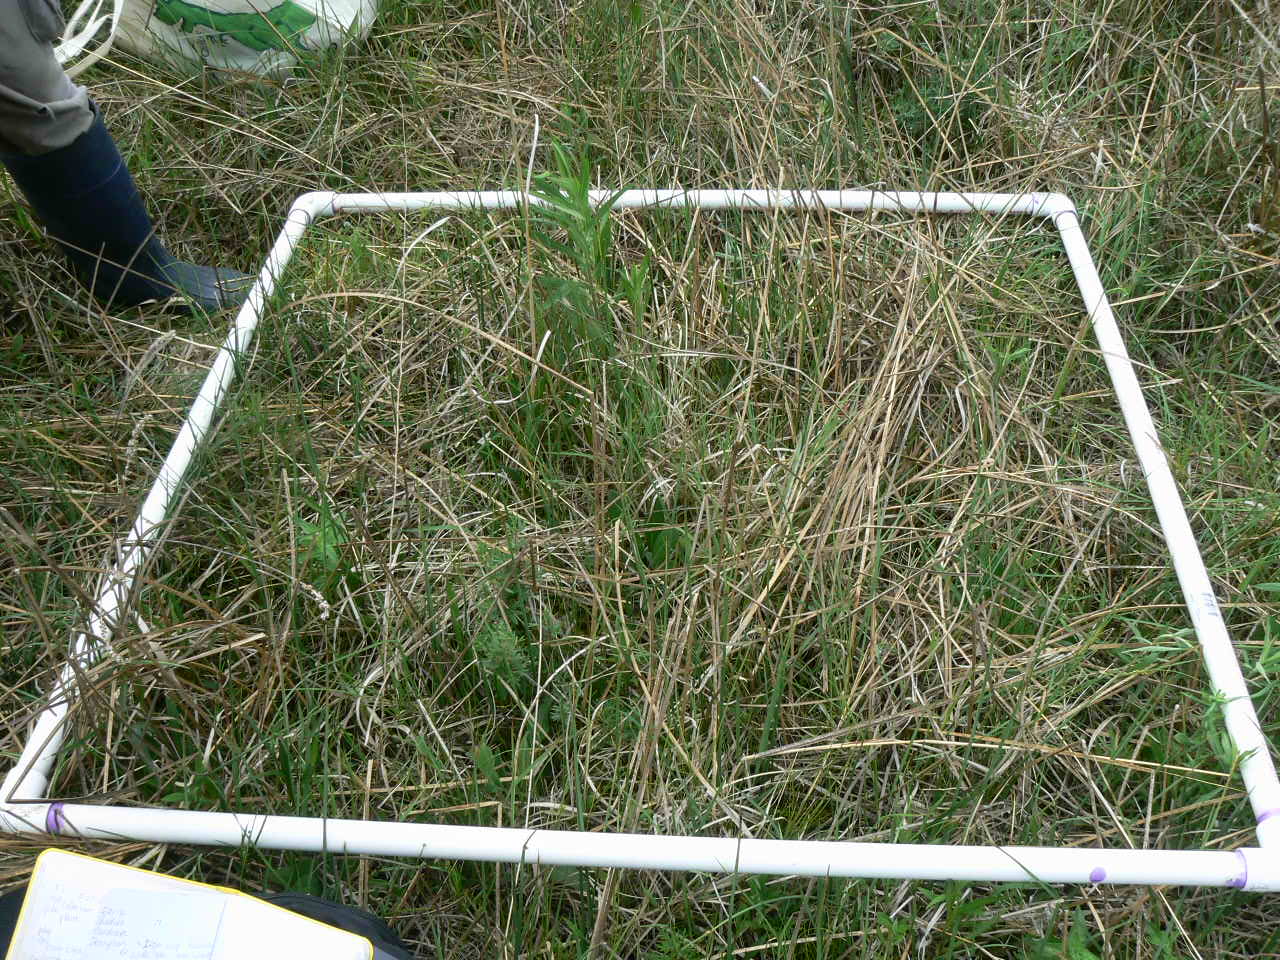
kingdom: Plantae
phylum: Tracheophyta
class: Magnoliopsida
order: Rosales
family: Rosaceae
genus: Dasiphora
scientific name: Dasiphora fruticosa
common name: Shrubby cinquefoil
